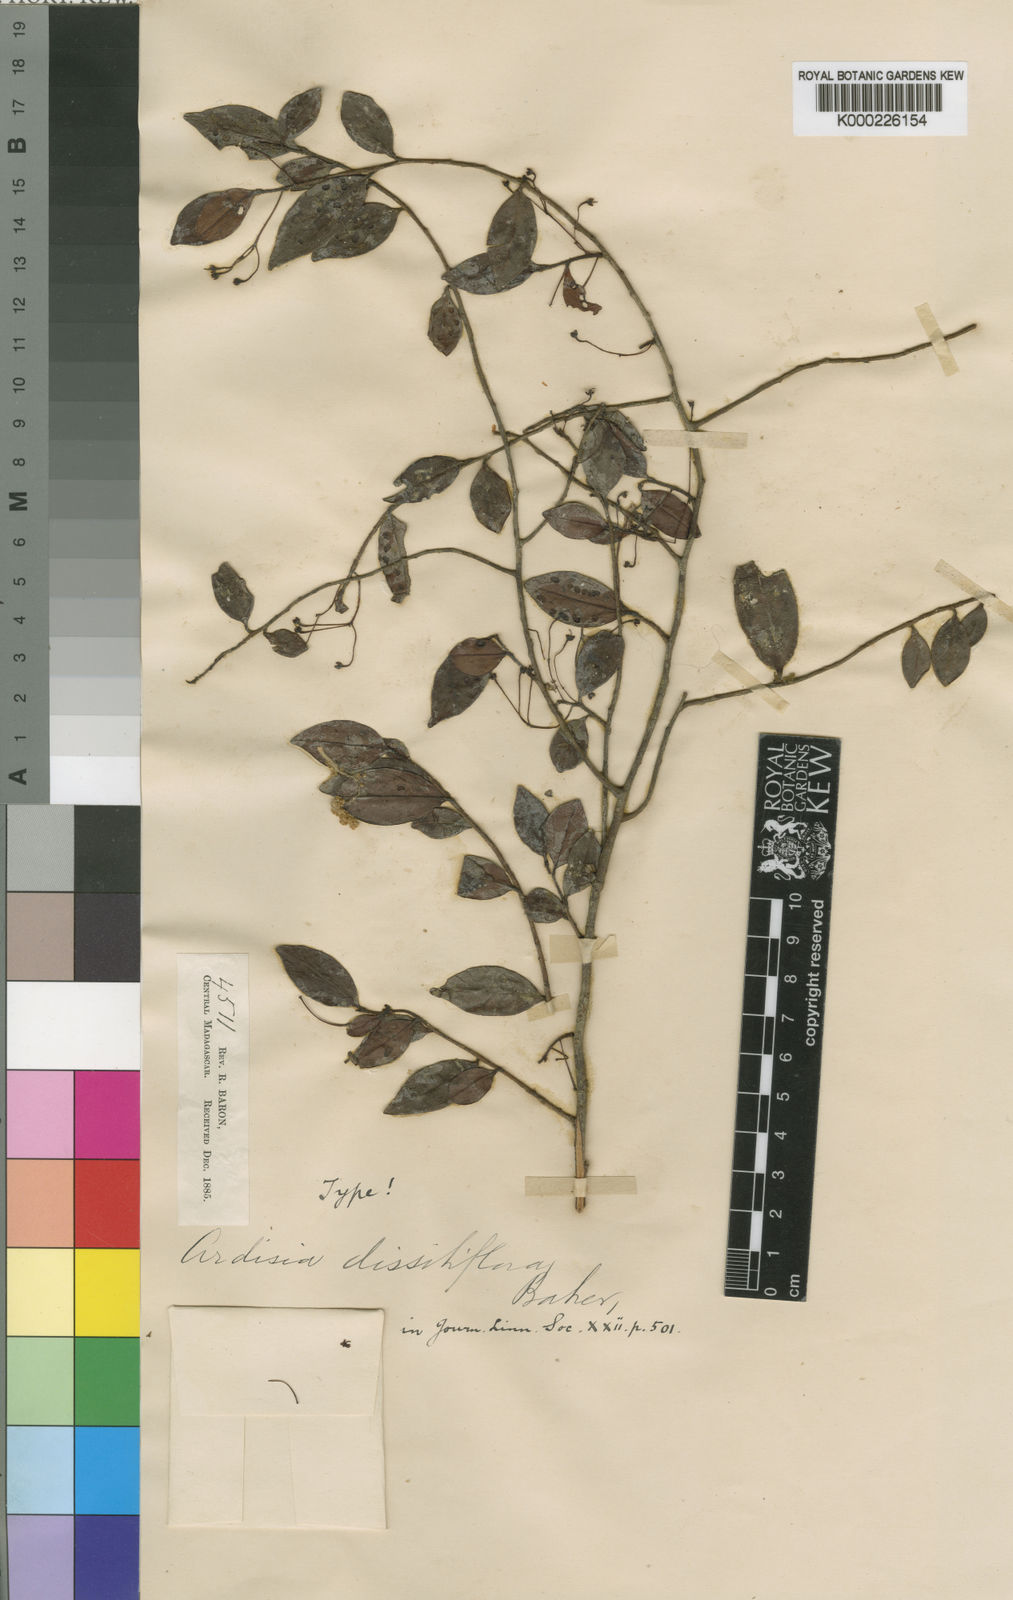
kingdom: Plantae
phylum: Tracheophyta
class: Magnoliopsida
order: Ericales
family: Primulaceae
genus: Oncostemum
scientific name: Oncostemum oliganthum
